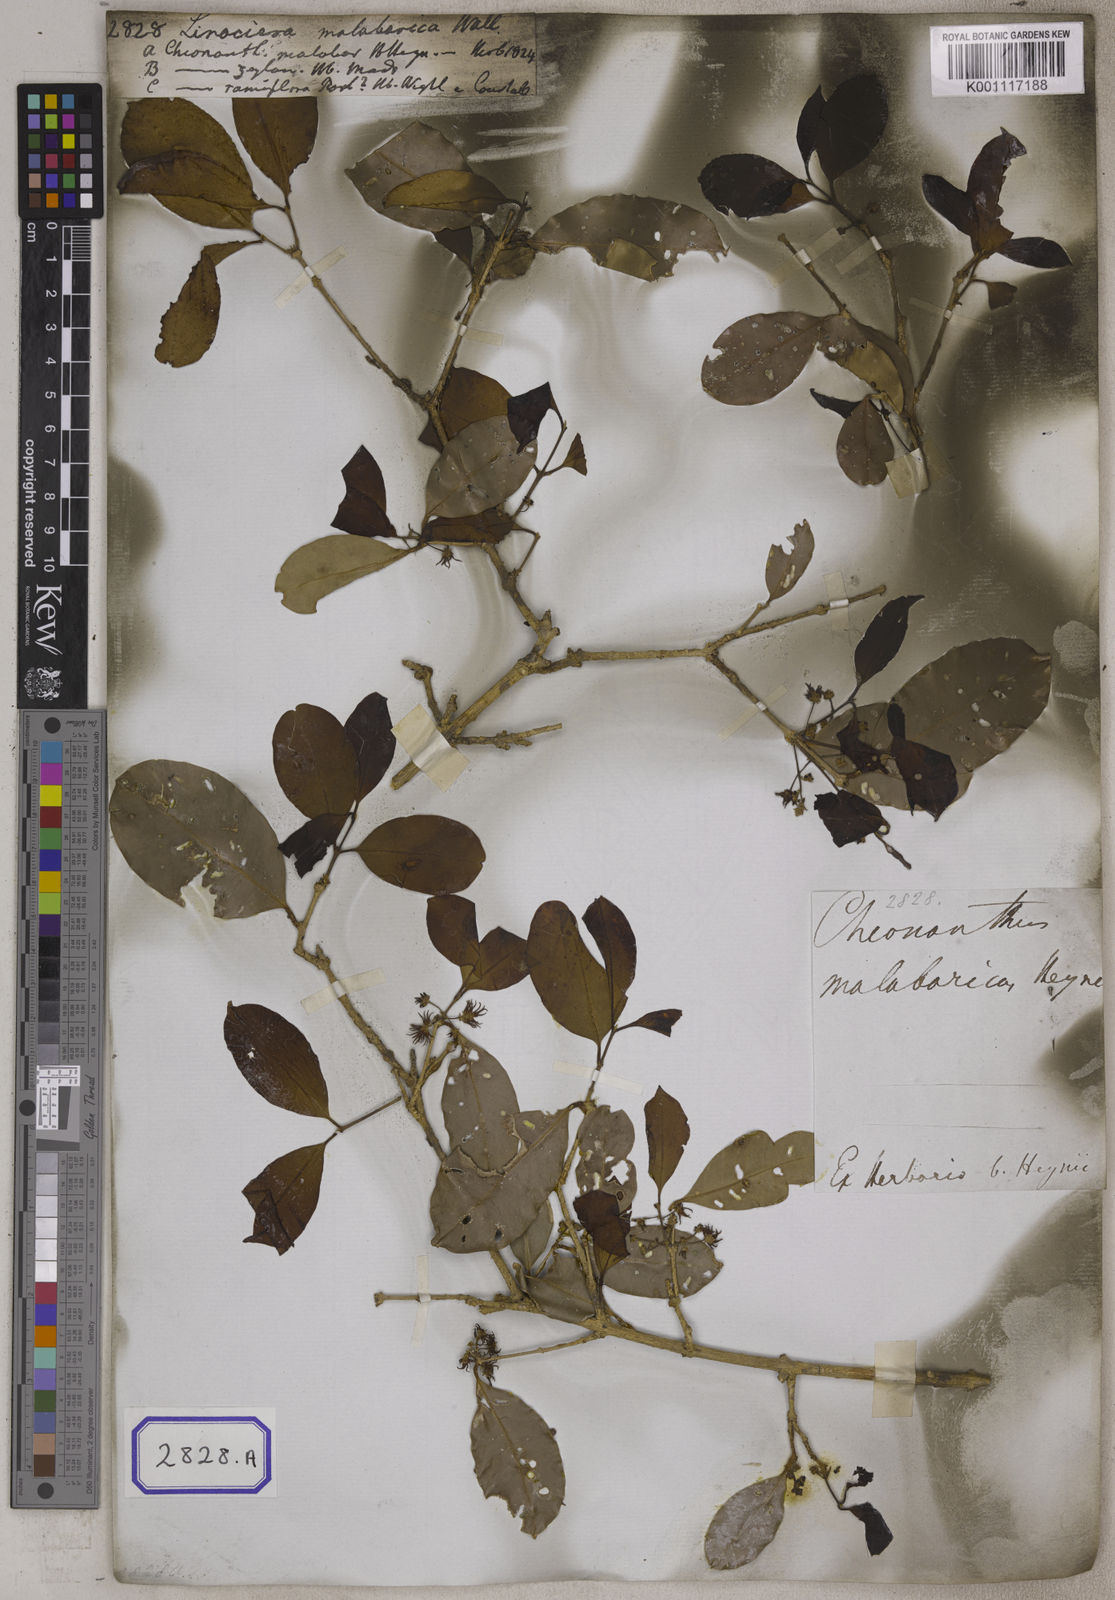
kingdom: Plantae
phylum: Tracheophyta
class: Magnoliopsida
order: Lamiales
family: Oleaceae
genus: Chionanthus
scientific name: Chionanthus
